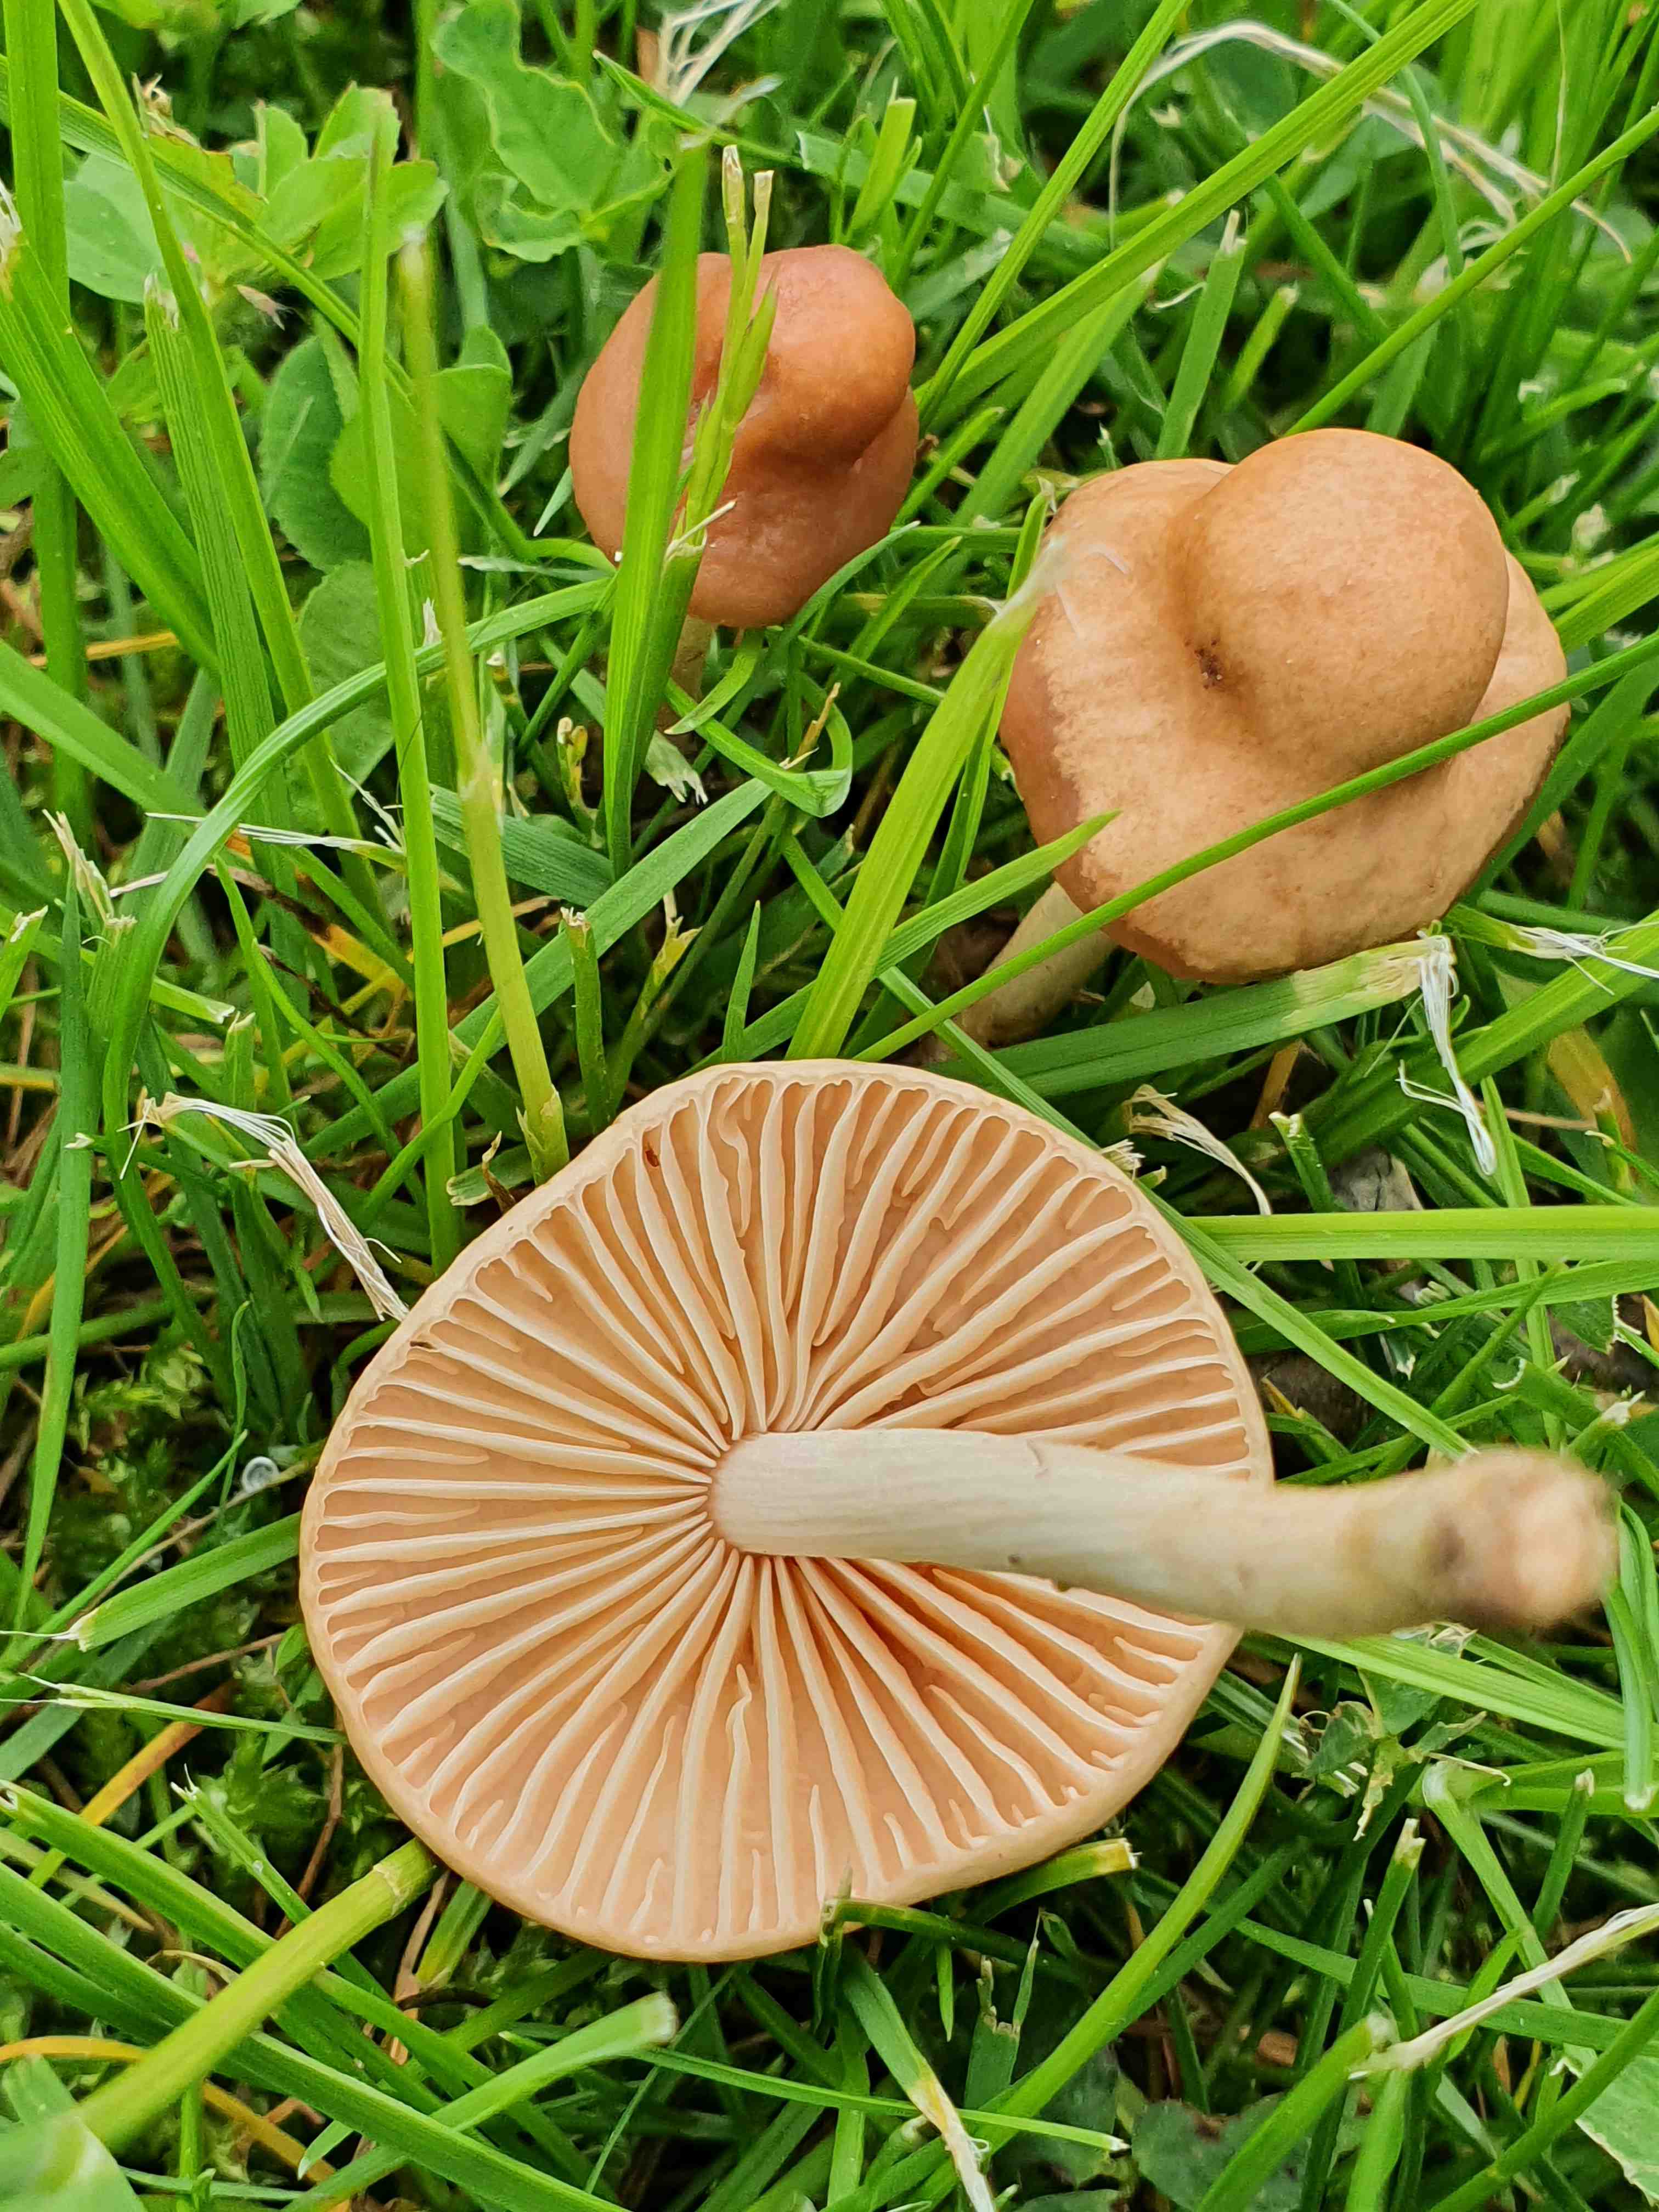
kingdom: Fungi
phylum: Basidiomycota
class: Agaricomycetes
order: Agaricales
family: Marasmiaceae
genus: Marasmius
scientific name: Marasmius oreades
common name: elledans-bruskhat
